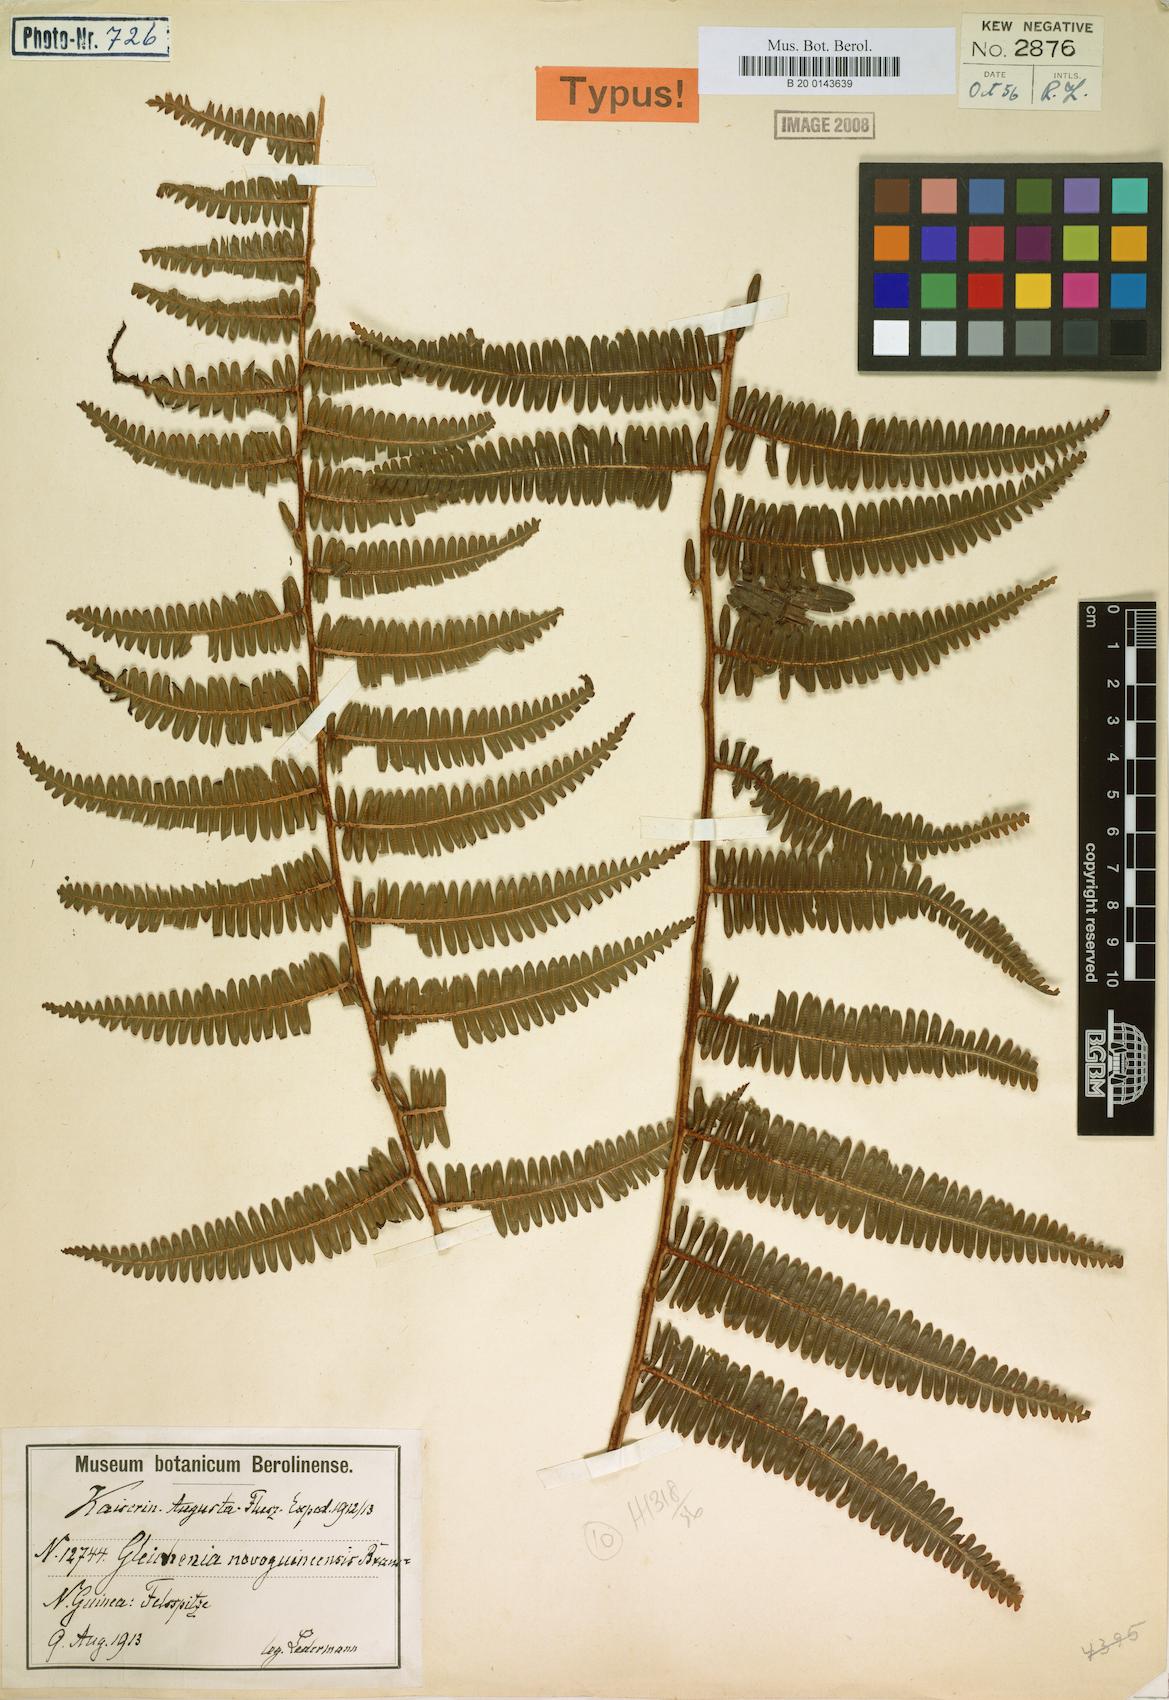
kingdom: Plantae
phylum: Tracheophyta
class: Polypodiopsida
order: Gleicheniales
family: Gleicheniaceae
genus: Diplopterygium
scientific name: Diplopterygium sordidum
